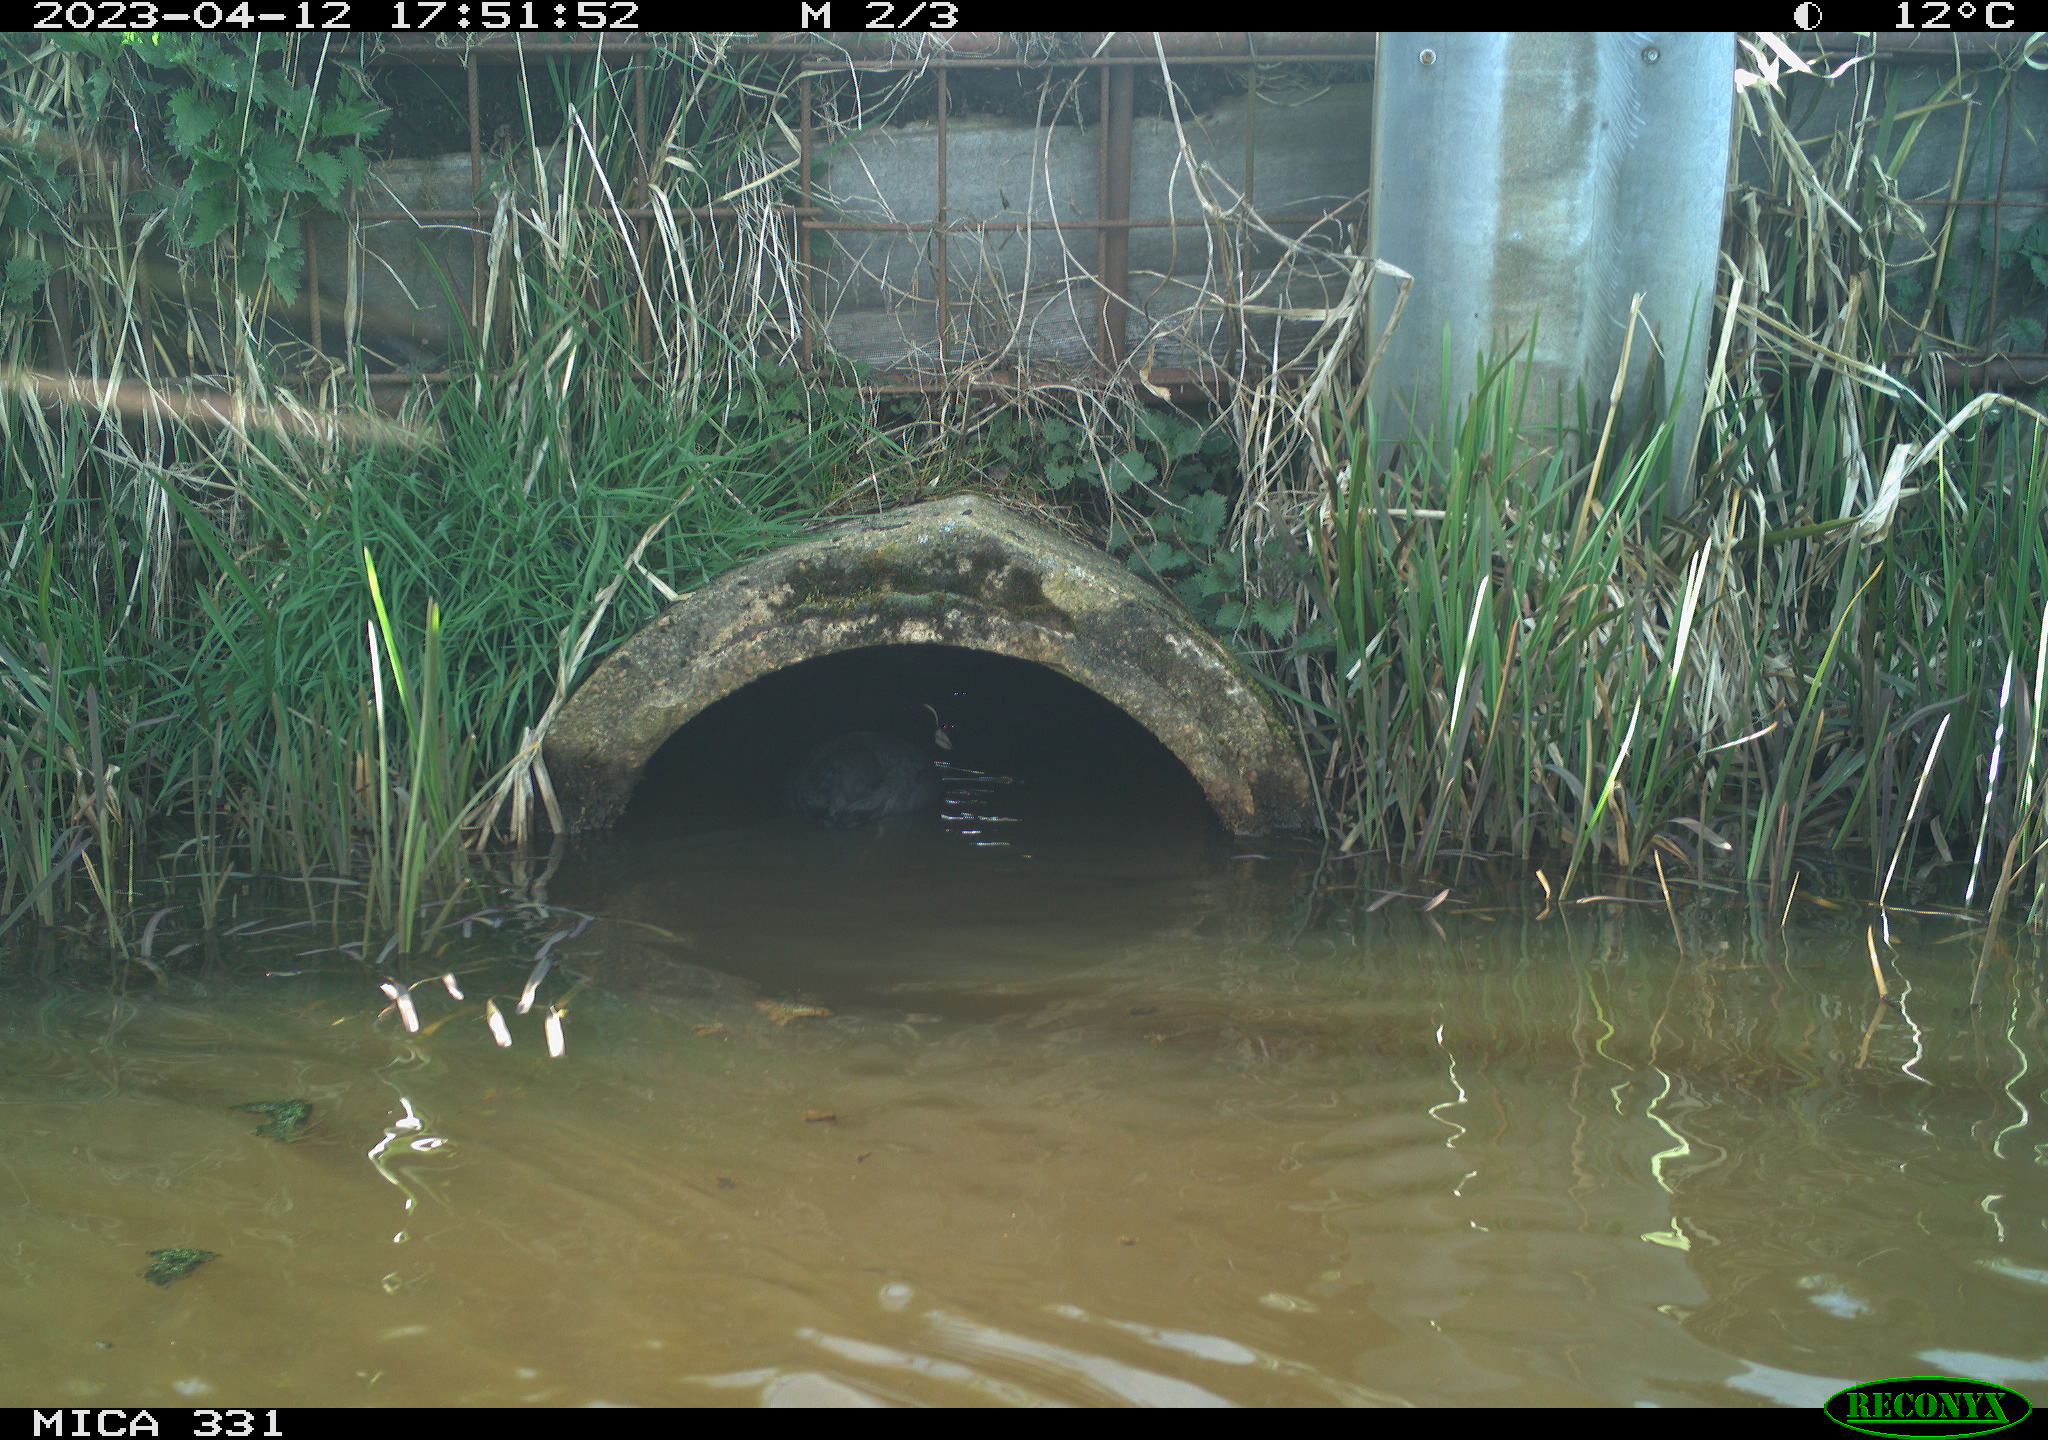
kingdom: Animalia
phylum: Chordata
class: Aves
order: Gruiformes
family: Rallidae
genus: Gallinula
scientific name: Gallinula chloropus
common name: Common moorhen
